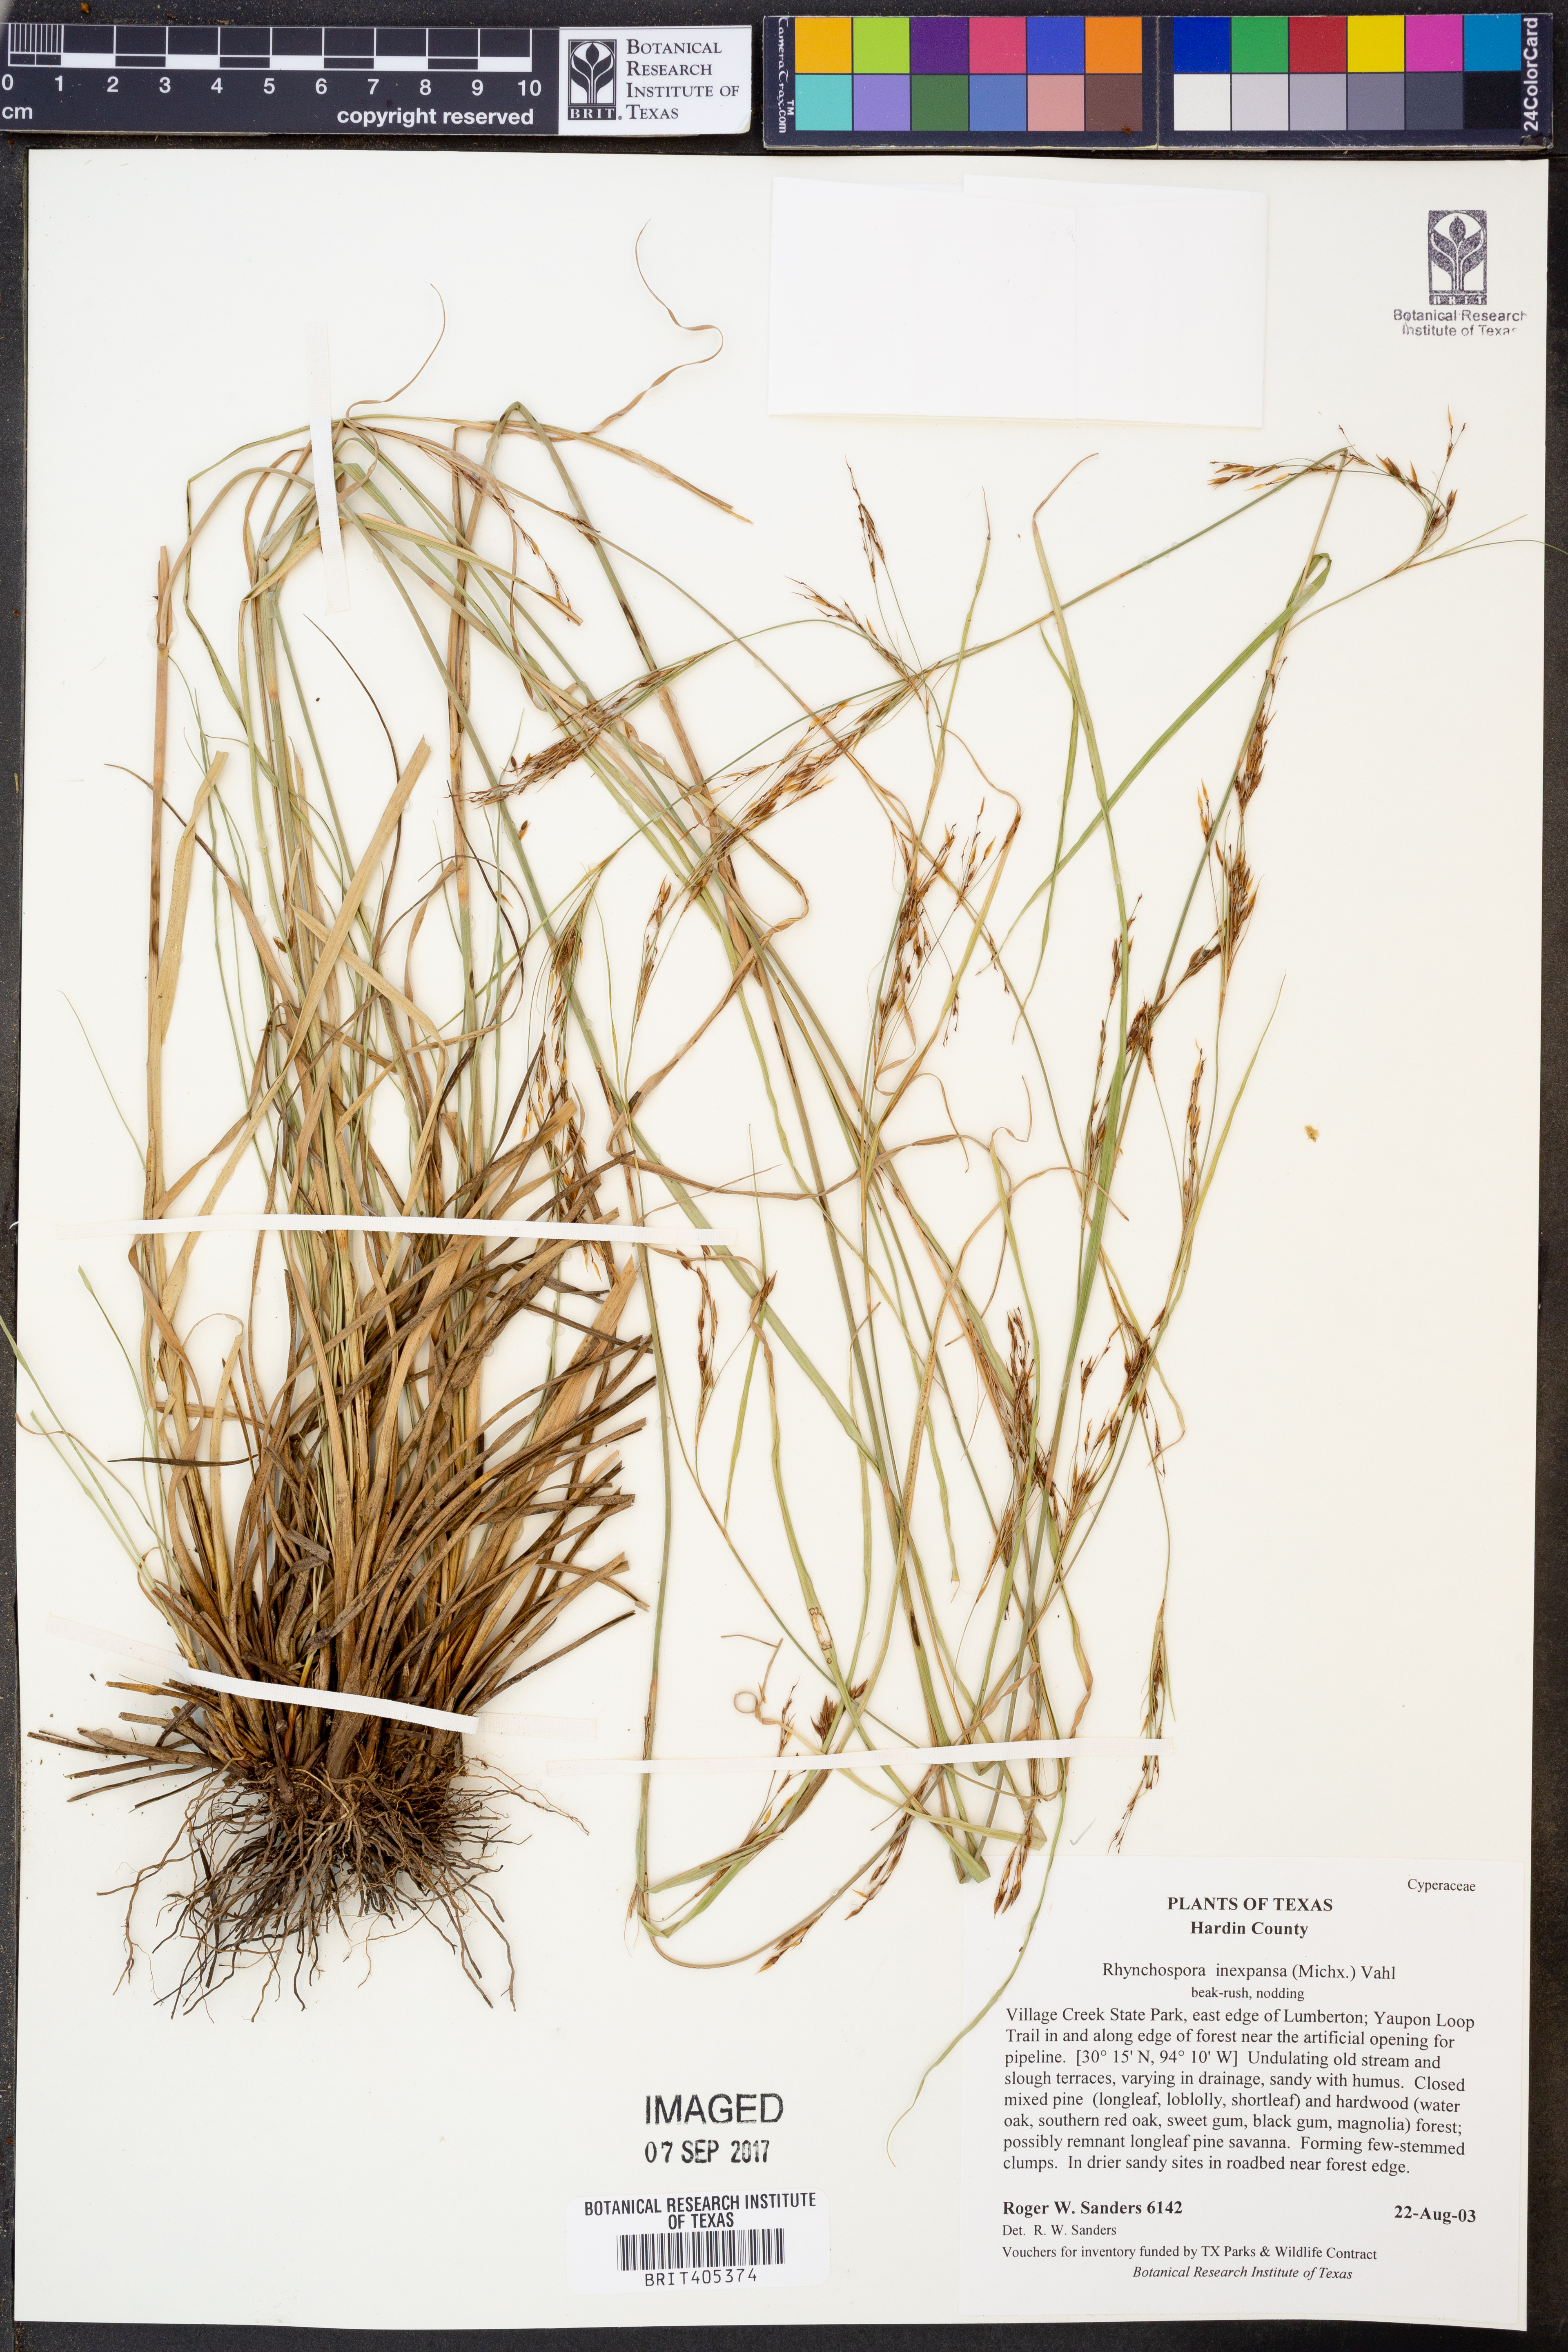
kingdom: Plantae
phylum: Tracheophyta
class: Liliopsida
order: Poales
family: Cyperaceae
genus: Rhynchospora
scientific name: Rhynchospora inexpansa
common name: Nodding beaksedge
